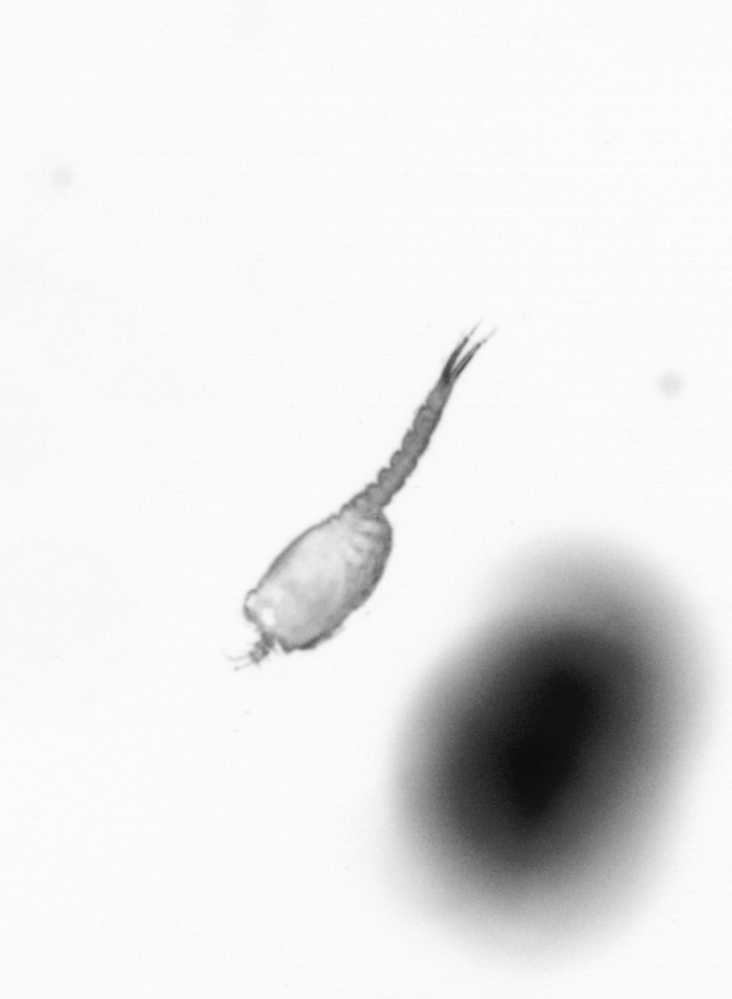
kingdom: Animalia
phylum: Arthropoda
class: Copepoda
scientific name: Copepoda
